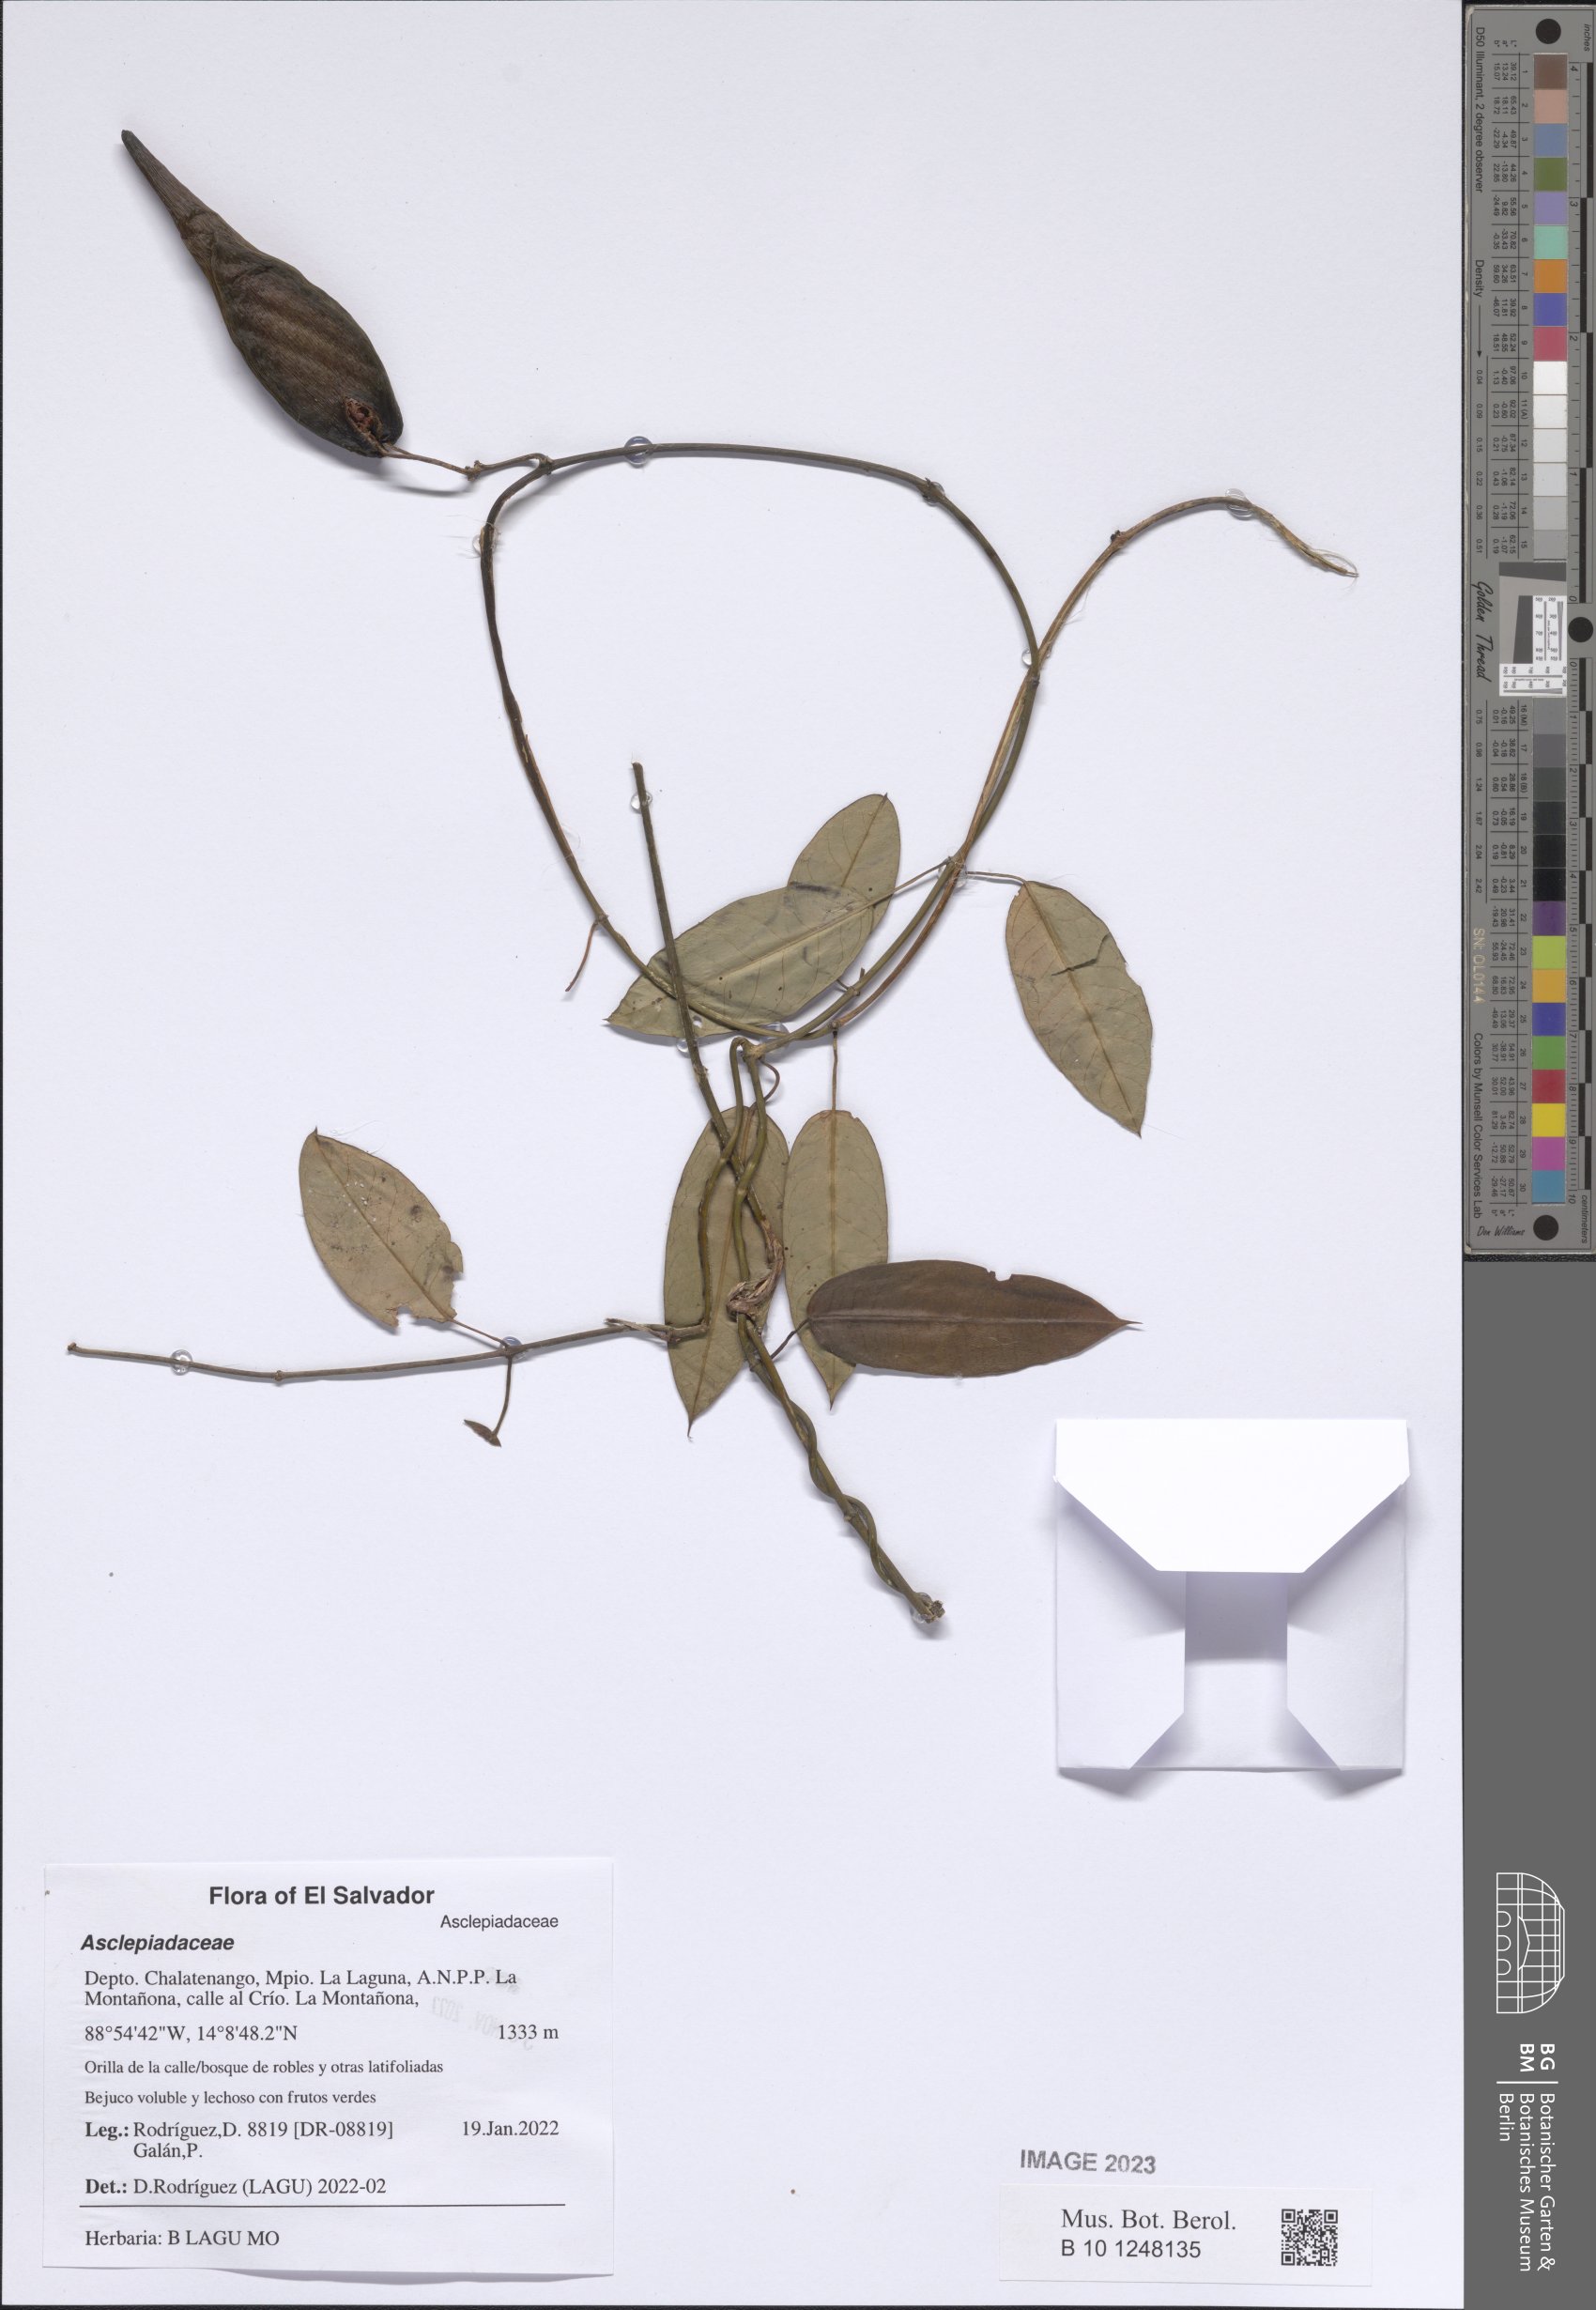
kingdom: Plantae
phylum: Tracheophyta
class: Magnoliopsida
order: Gentianales
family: Asclepiadaceae
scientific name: Asclepiadaceae
